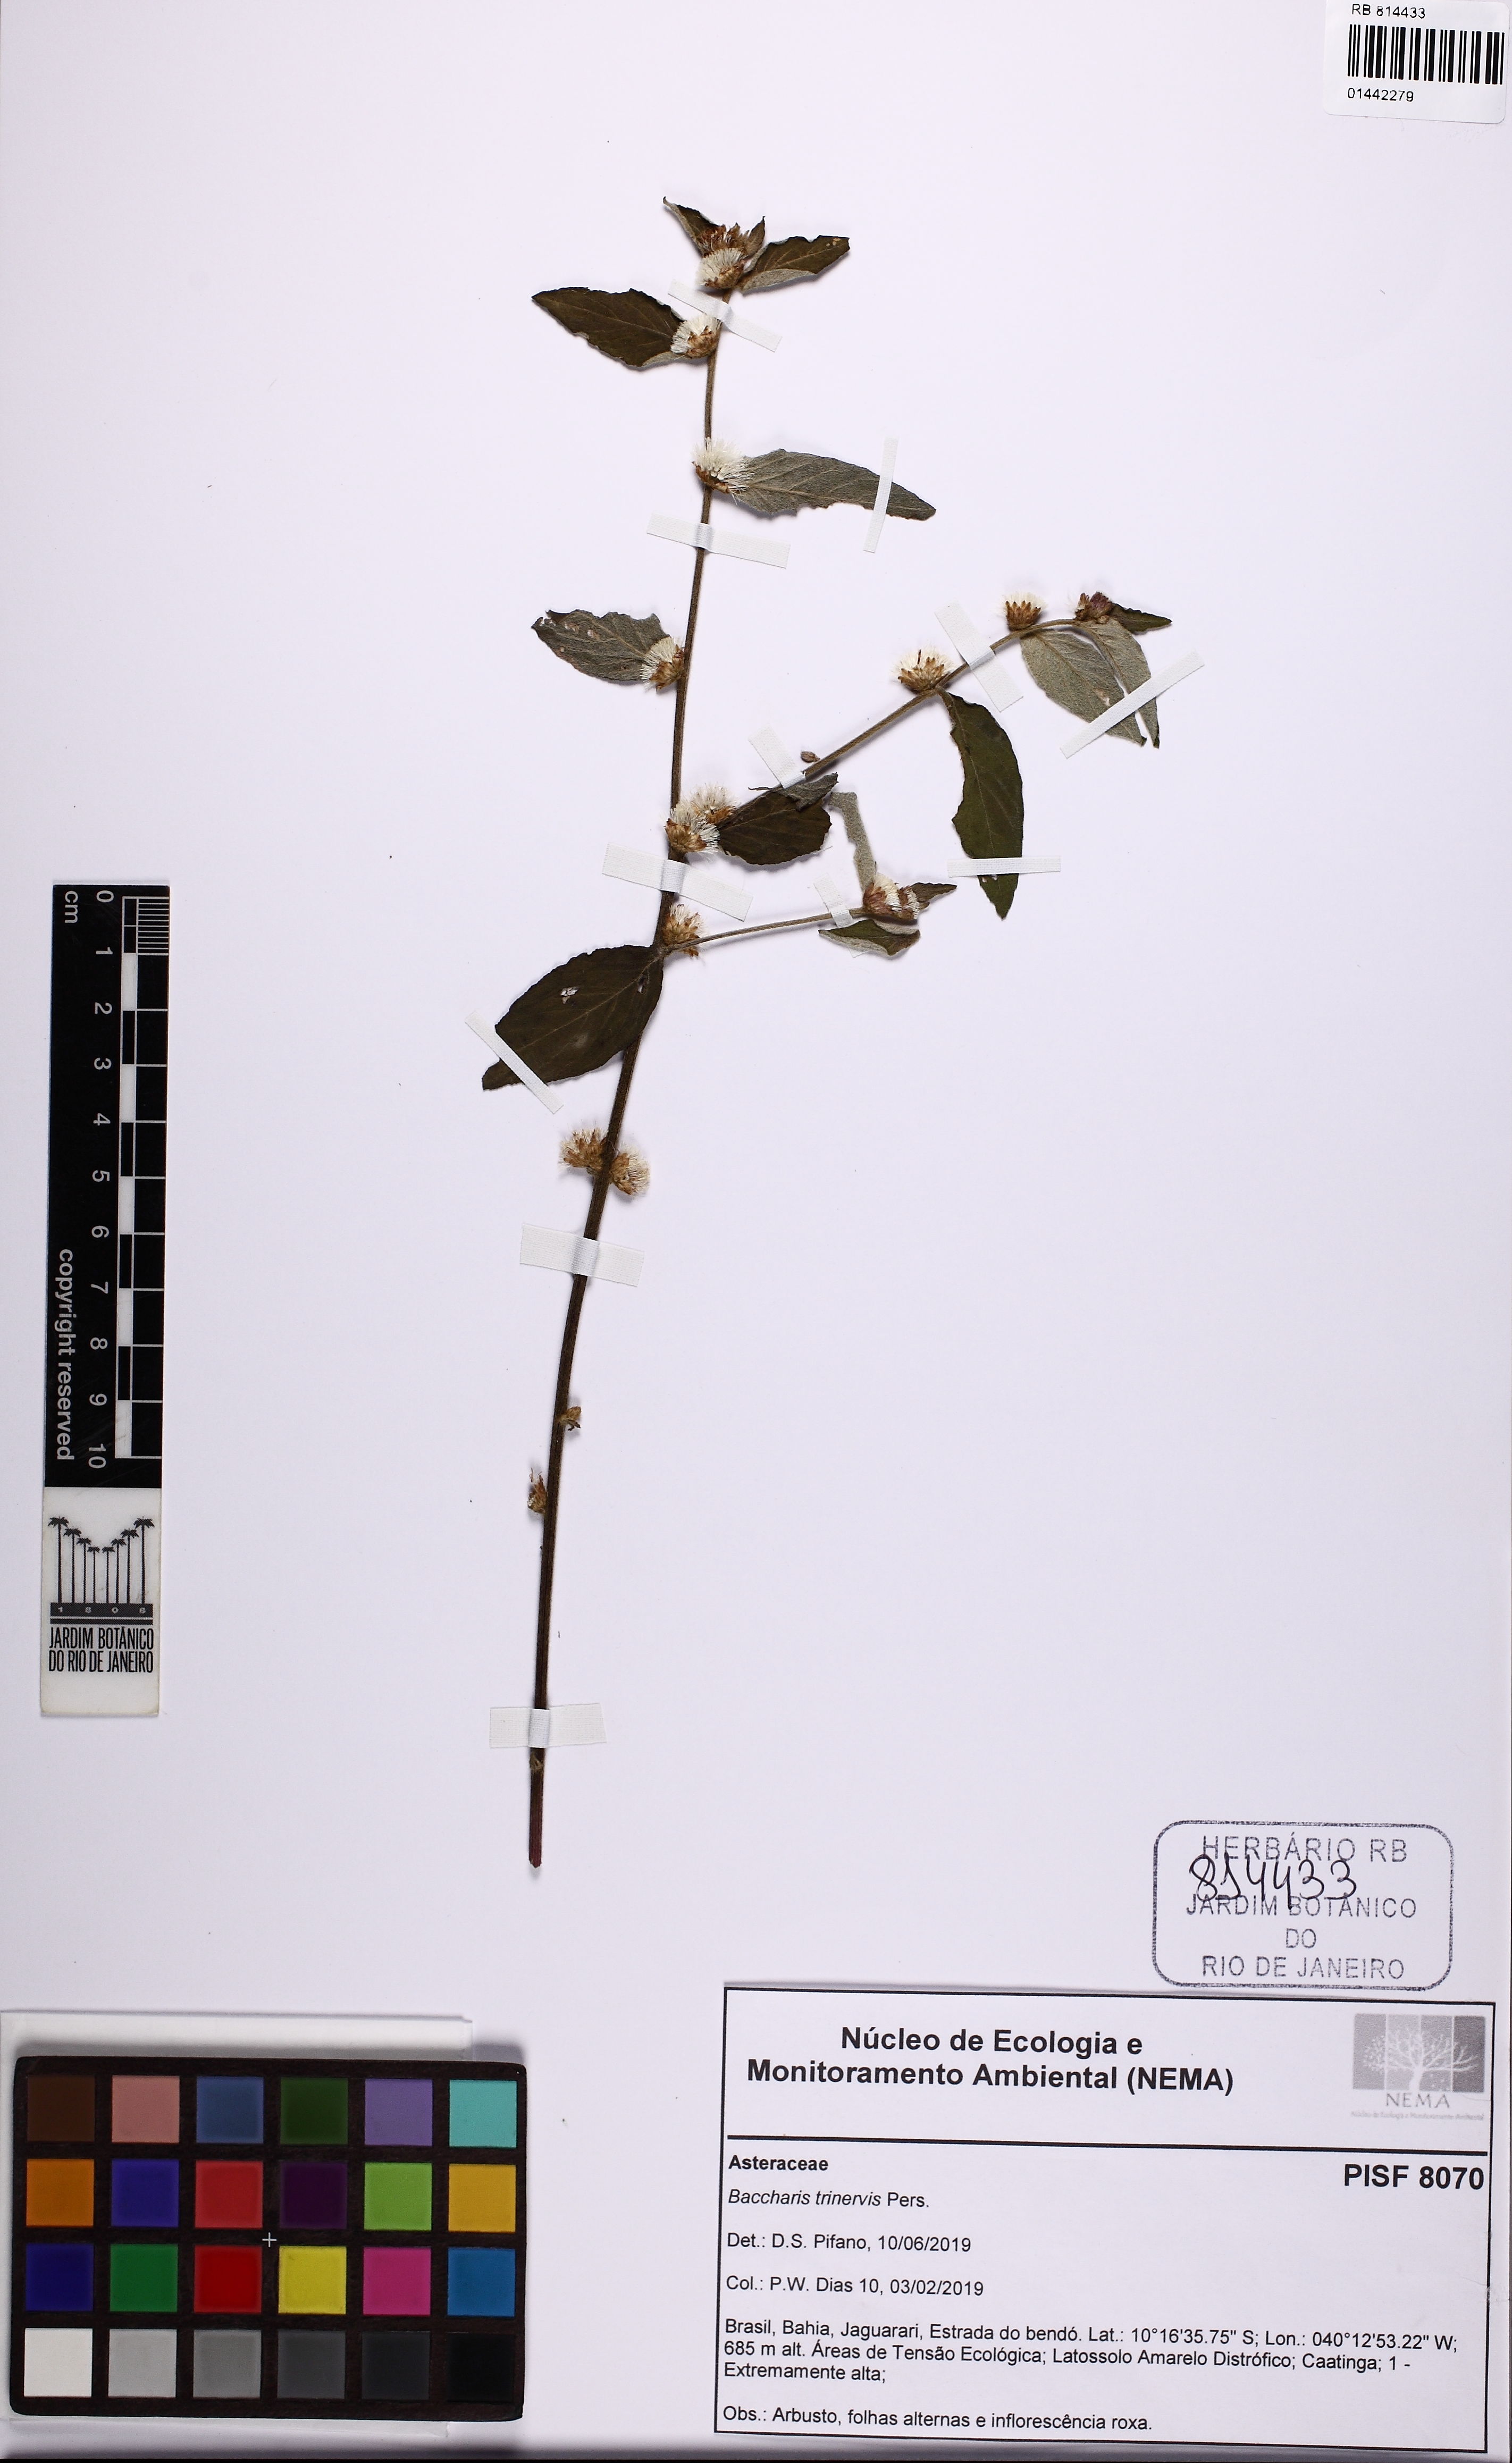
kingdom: Plantae
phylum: Tracheophyta
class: Magnoliopsida
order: Asterales
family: Asteraceae
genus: Baccharis
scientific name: Baccharis trinervis
